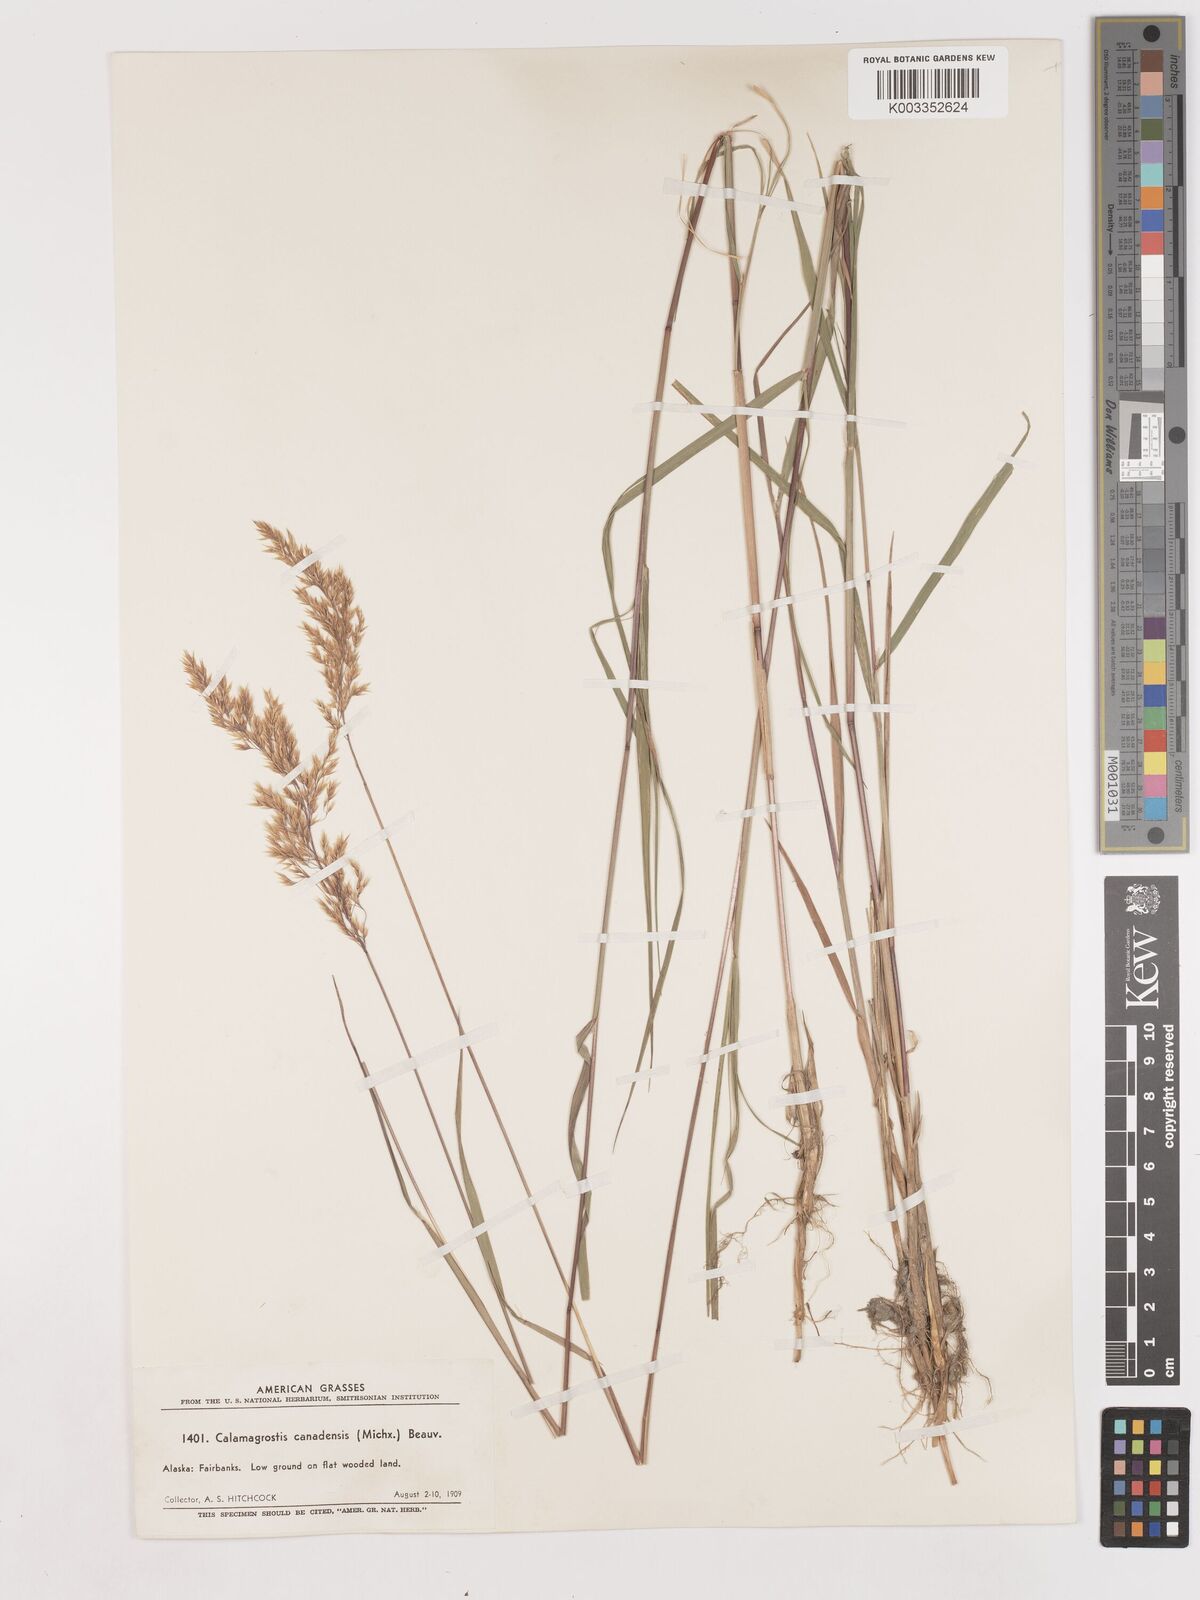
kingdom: Plantae
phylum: Tracheophyta
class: Liliopsida
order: Poales
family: Poaceae
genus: Calamagrostis
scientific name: Calamagrostis canadensis
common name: Canada bluejoint
